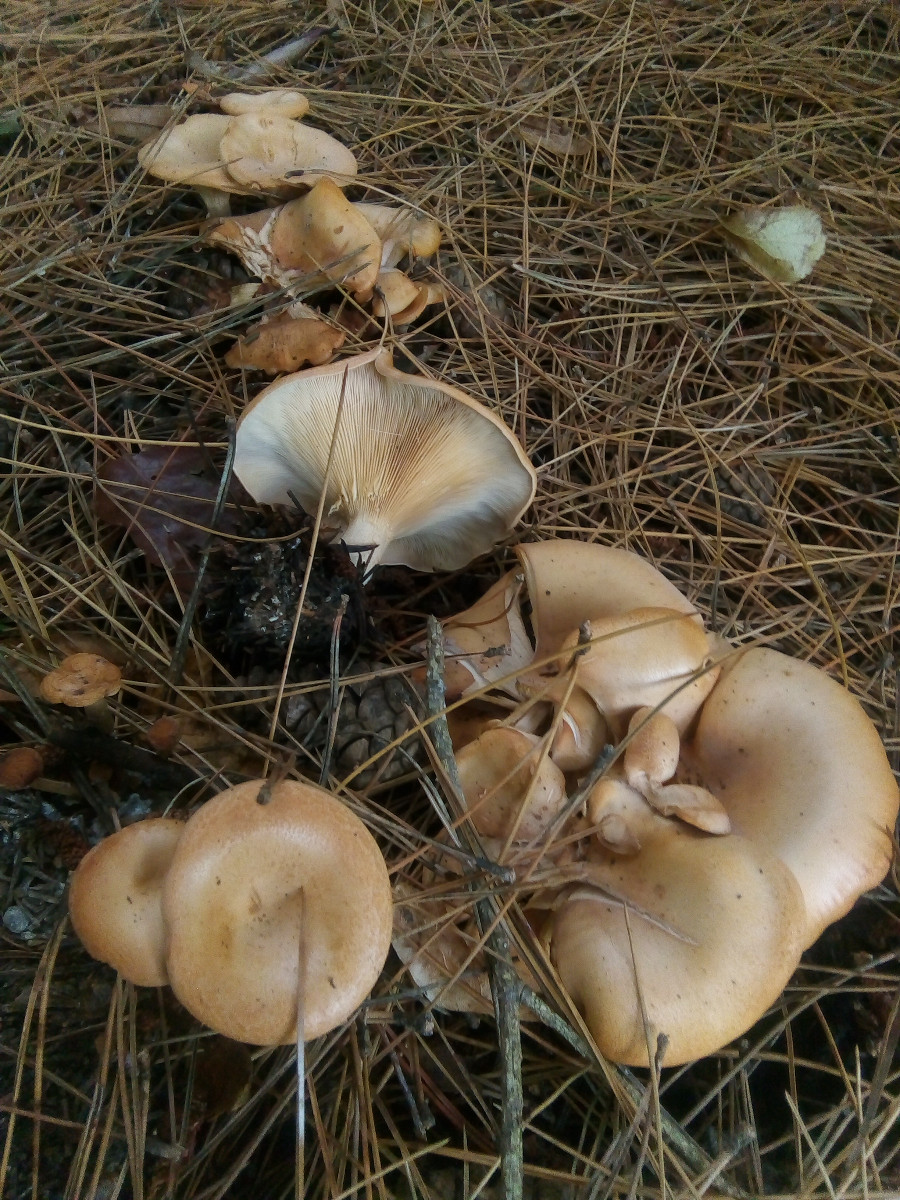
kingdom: Fungi
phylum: Basidiomycota
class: Agaricomycetes
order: Agaricales
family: Tricholomataceae
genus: Paralepista
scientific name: Paralepista flaccida
